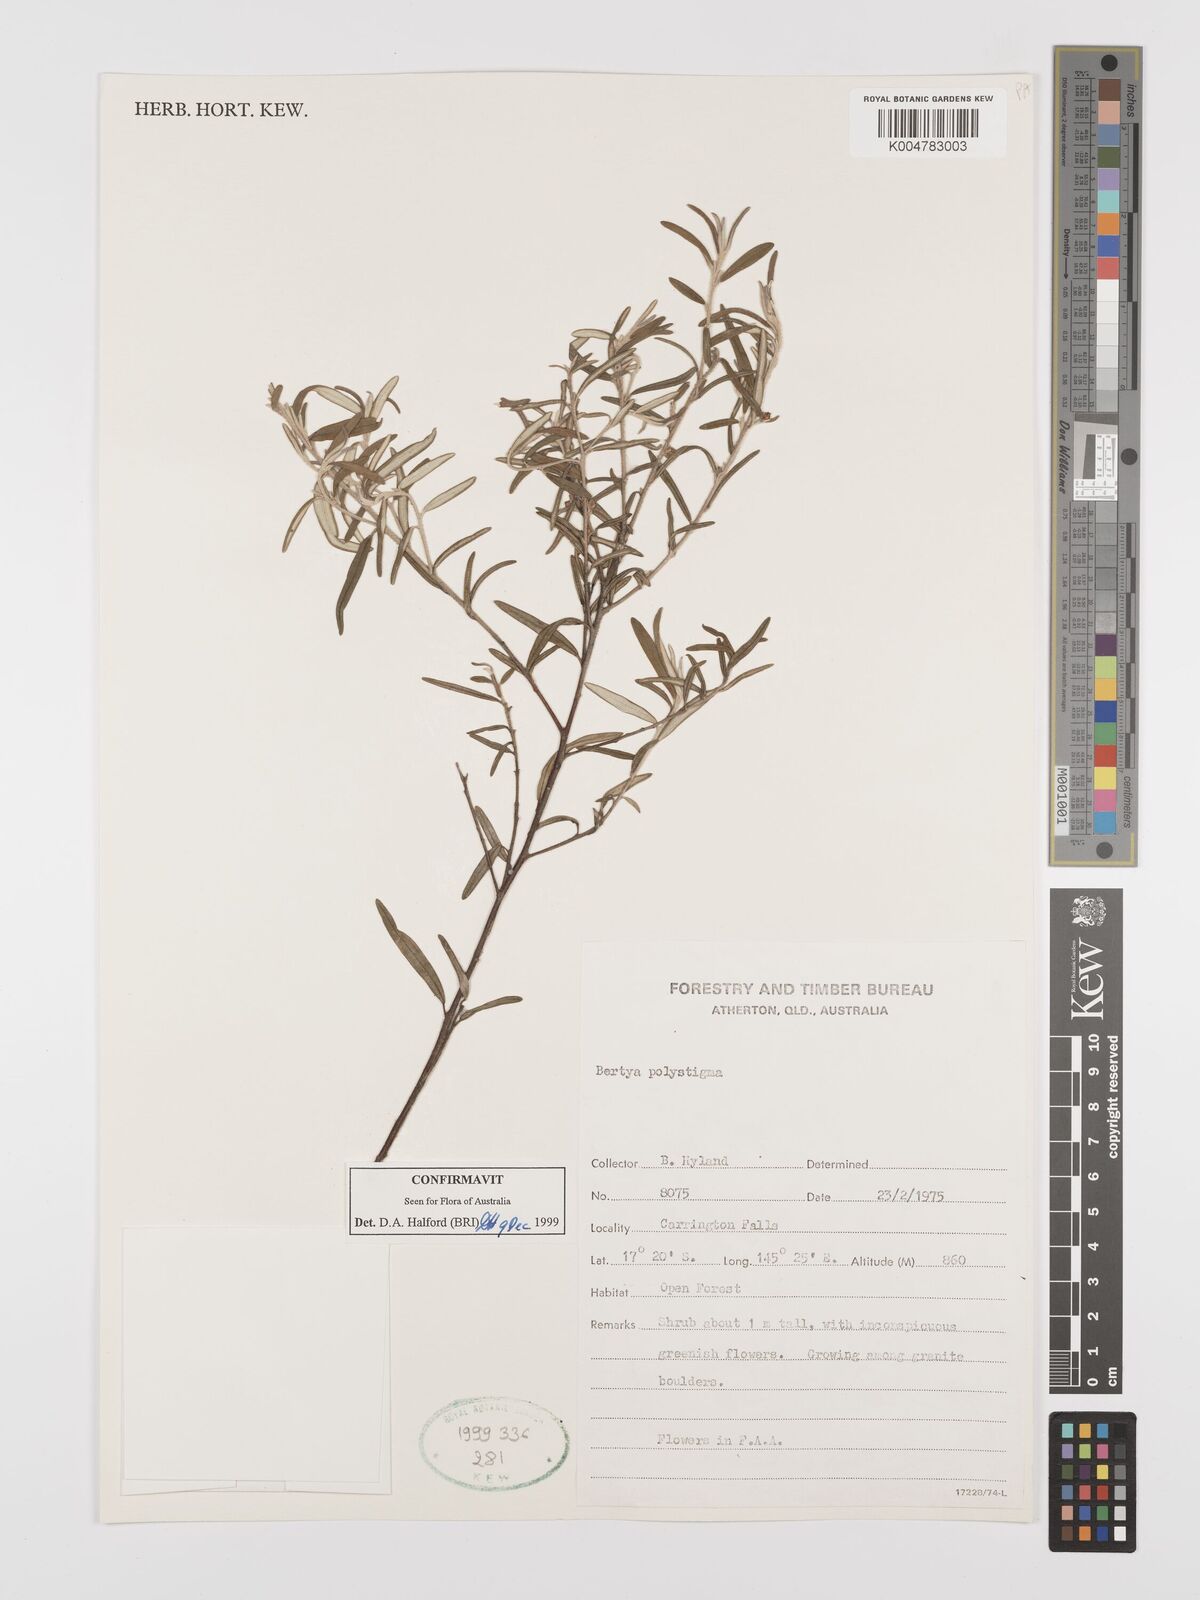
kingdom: Plantae
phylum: Tracheophyta
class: Magnoliopsida
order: Malpighiales
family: Euphorbiaceae
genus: Bertya
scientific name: Bertya polystigma
